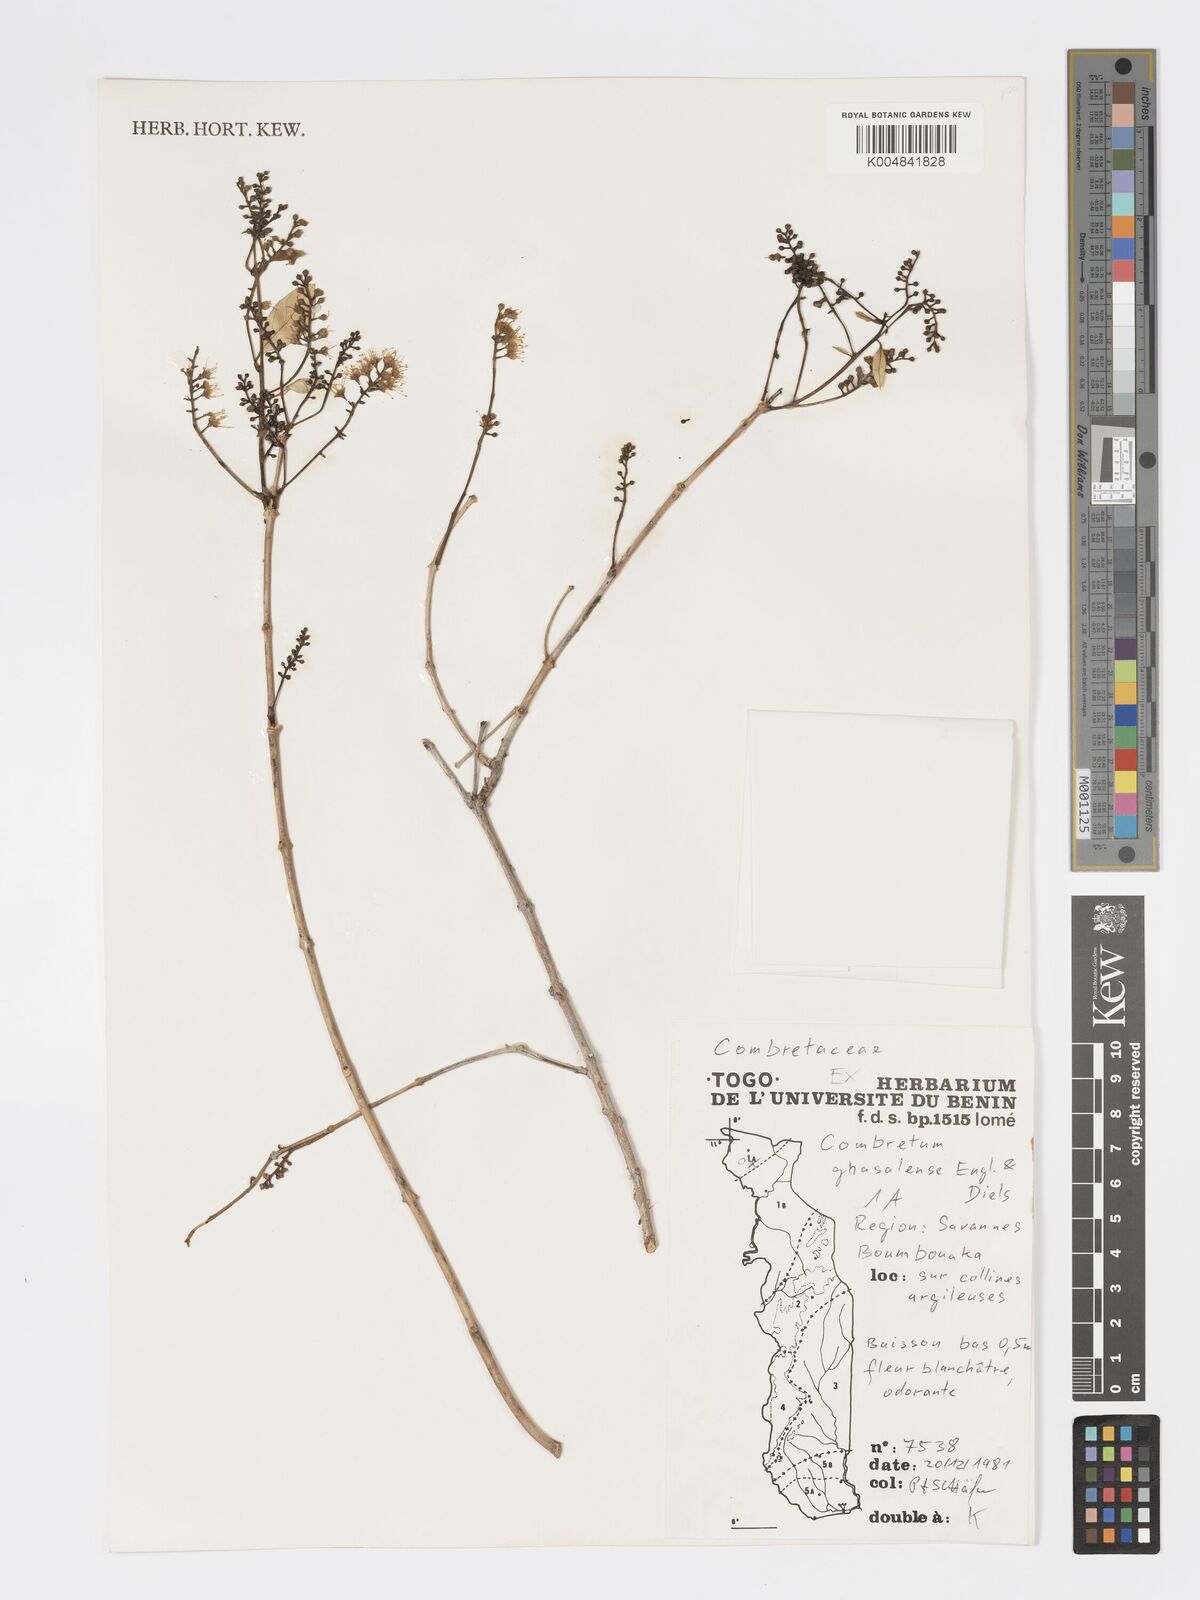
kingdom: Plantae
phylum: Tracheophyta
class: Magnoliopsida
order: Myrtales
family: Combretaceae
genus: Combretum
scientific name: Combretum adenogonium
